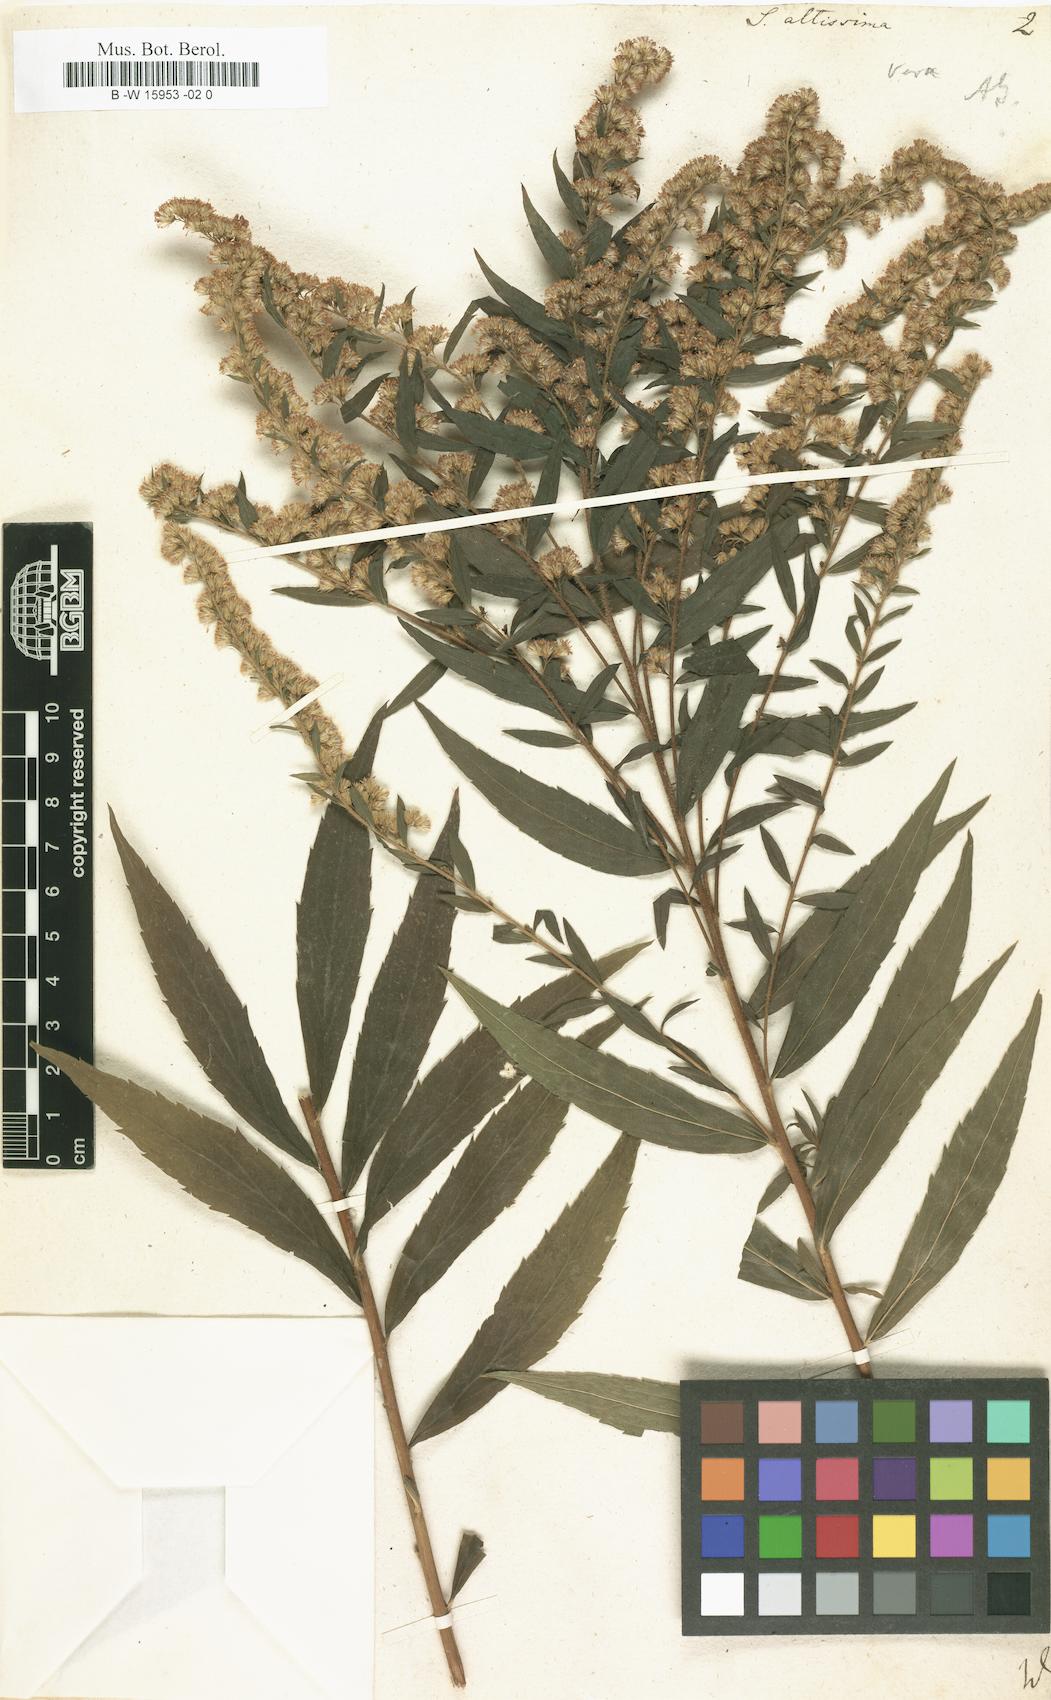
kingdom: Plantae
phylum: Tracheophyta
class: Magnoliopsida
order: Asterales
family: Asteraceae
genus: Solidago
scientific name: Solidago altissima
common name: Late goldenrod
